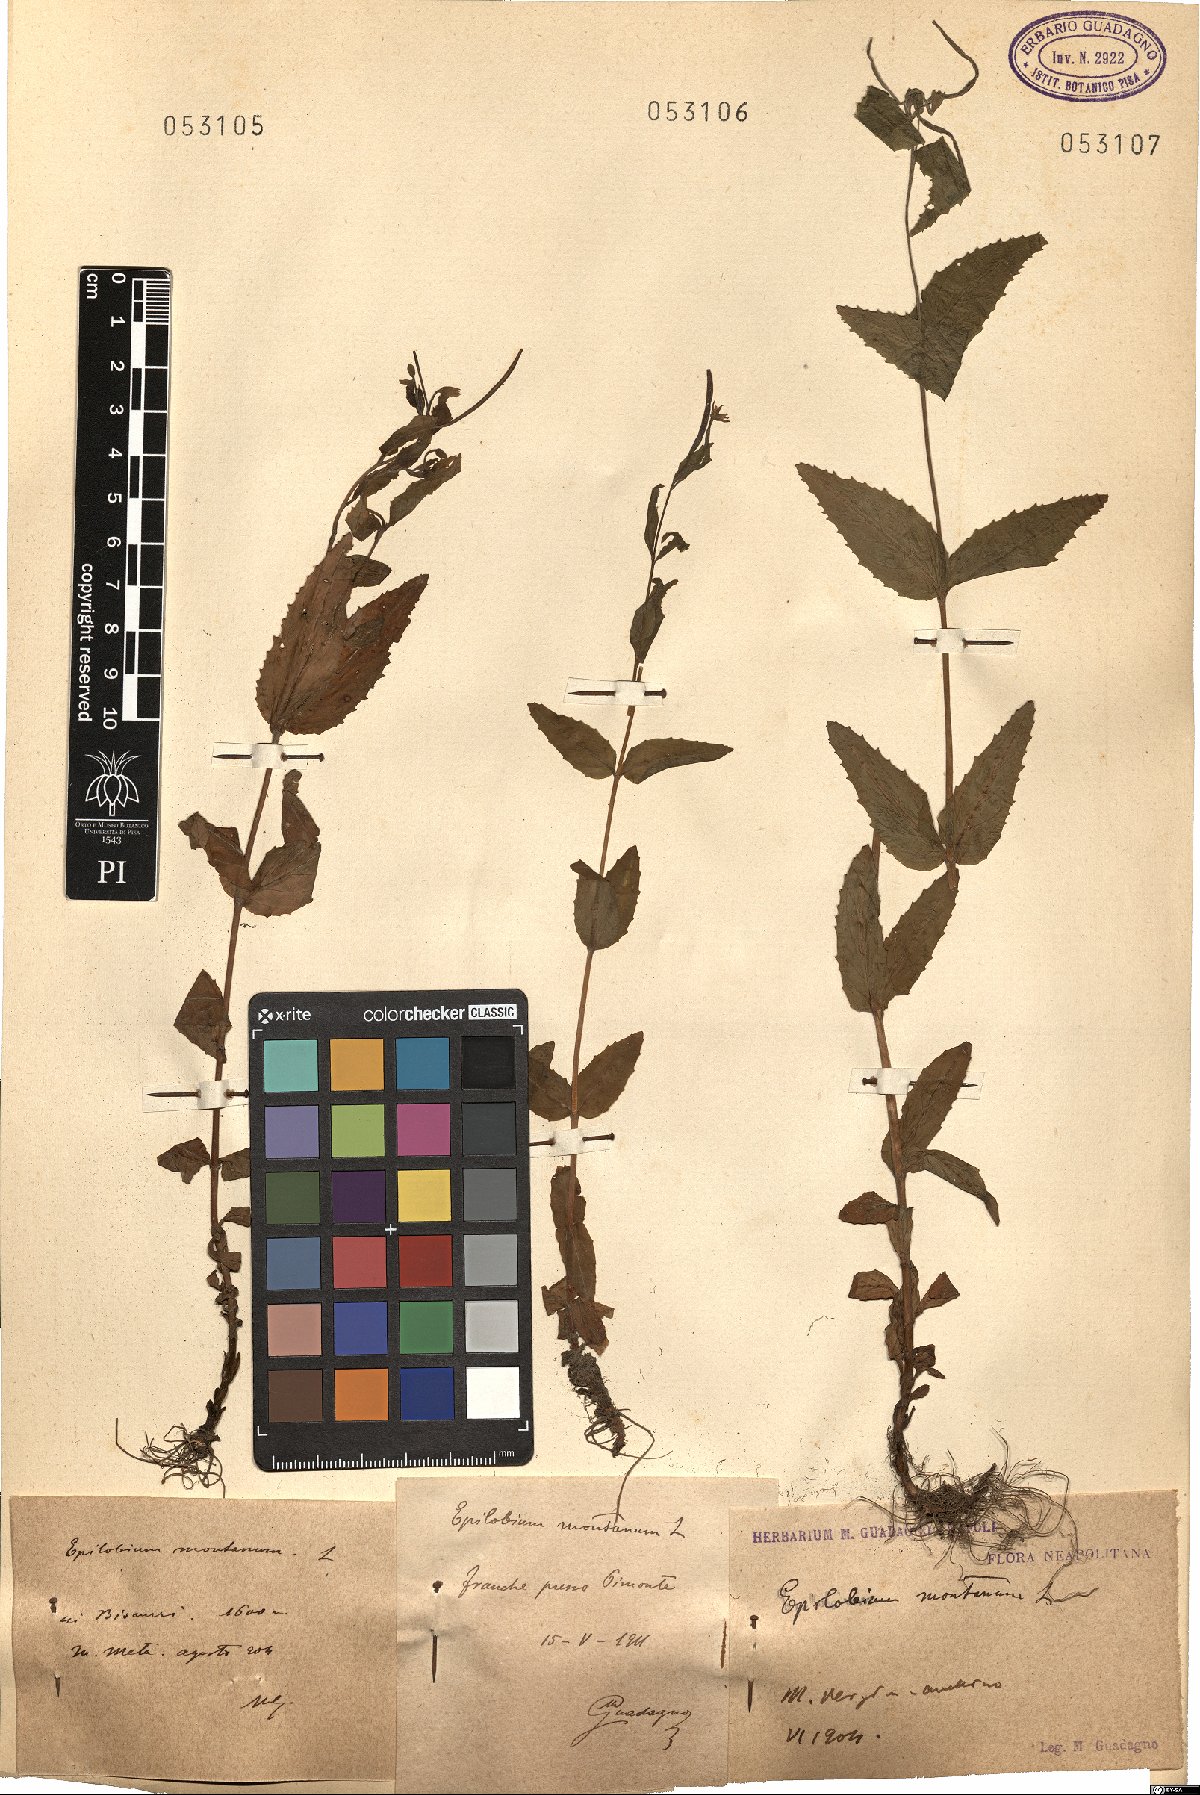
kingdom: Plantae
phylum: Tracheophyta
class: Magnoliopsida
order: Myrtales
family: Onagraceae
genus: Epilobium
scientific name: Epilobium montanum
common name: Broad-leaved willowherb
